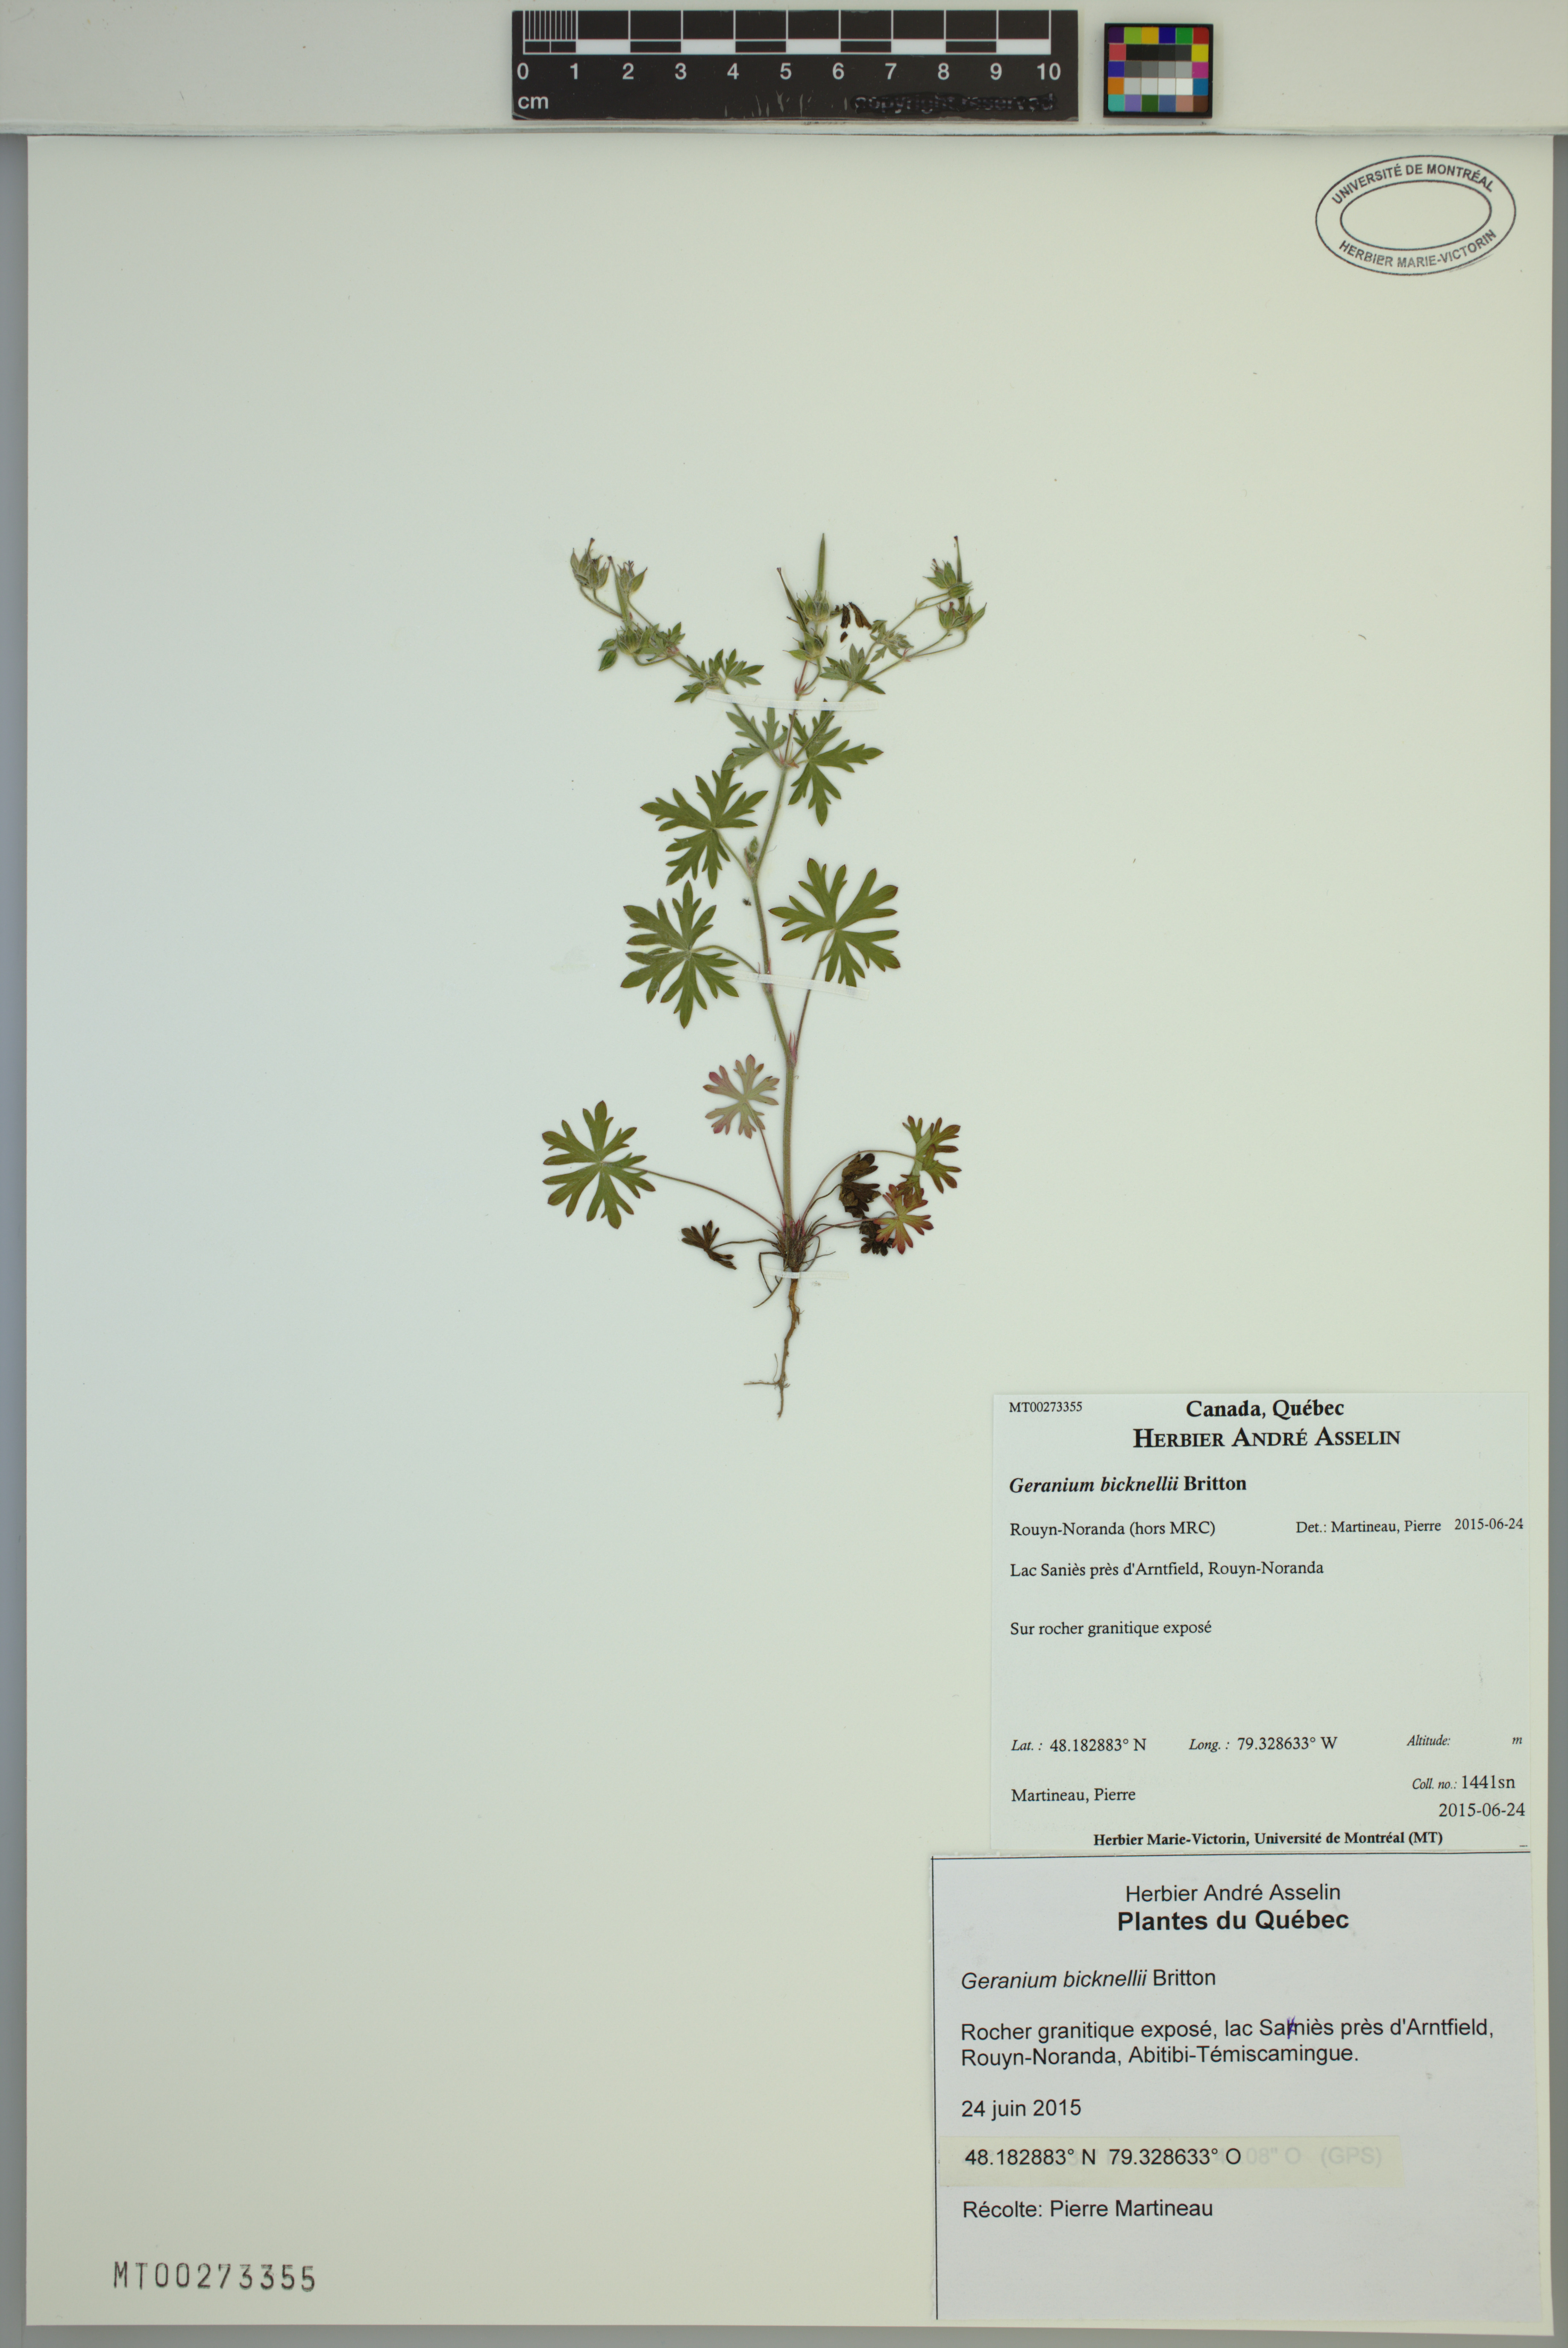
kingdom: Plantae
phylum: Tracheophyta
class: Magnoliopsida
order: Geraniales
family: Geraniaceae
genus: Geranium
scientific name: Geranium bicknellii
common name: Bicknell's cranesbill
